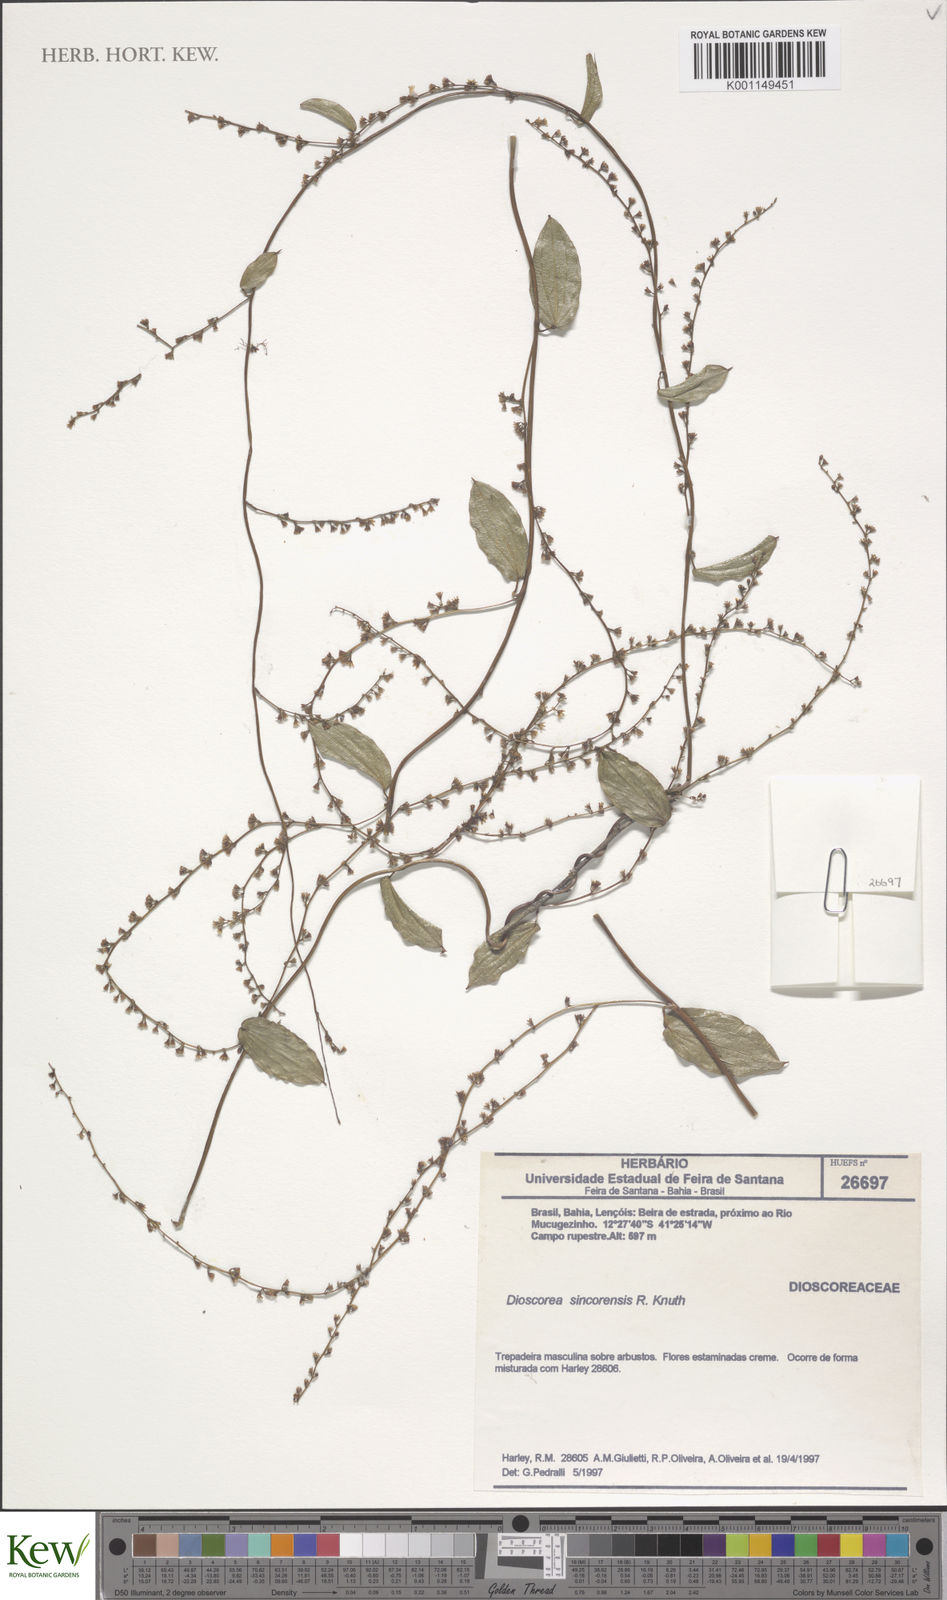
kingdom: Plantae
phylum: Tracheophyta
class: Liliopsida
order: Dioscoreales
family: Dioscoreaceae
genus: Dioscorea
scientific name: Dioscorea sincorensis
